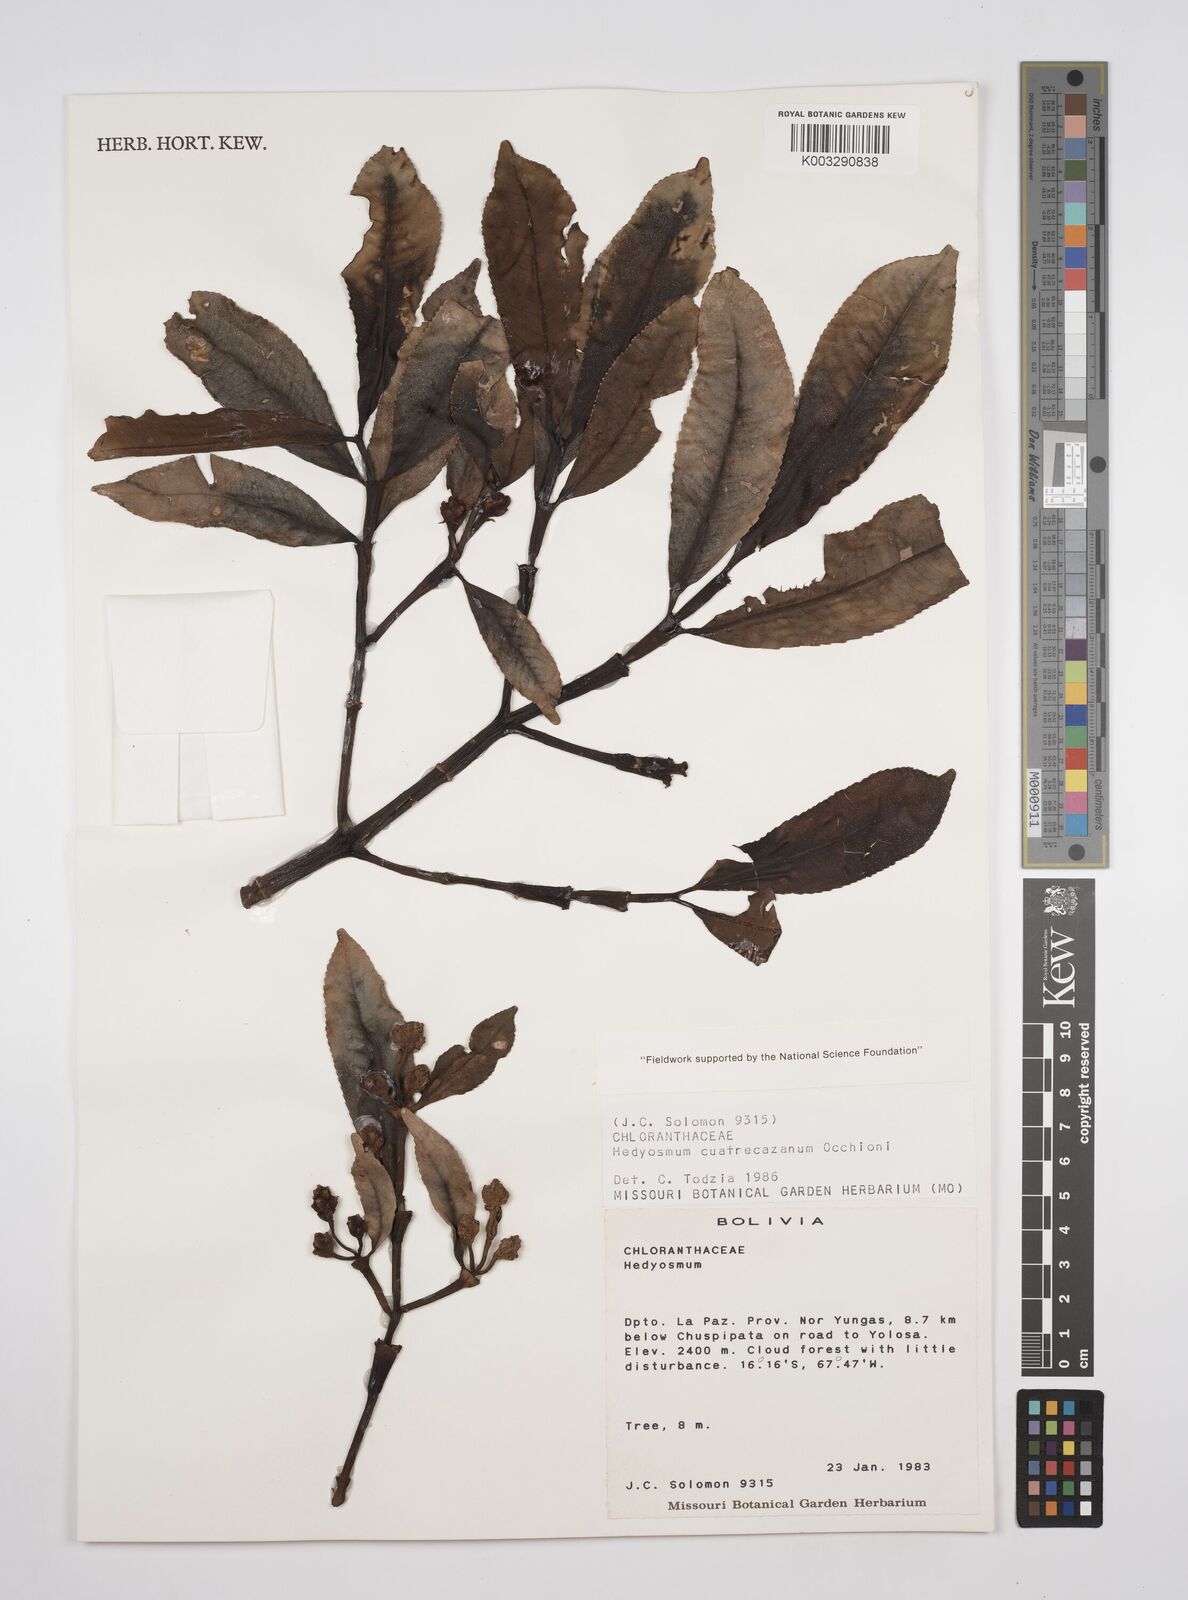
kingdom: Plantae
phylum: Tracheophyta
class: Magnoliopsida
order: Chloranthales
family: Chloranthaceae
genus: Hedyosmum
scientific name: Hedyosmum cuatrecazanum
